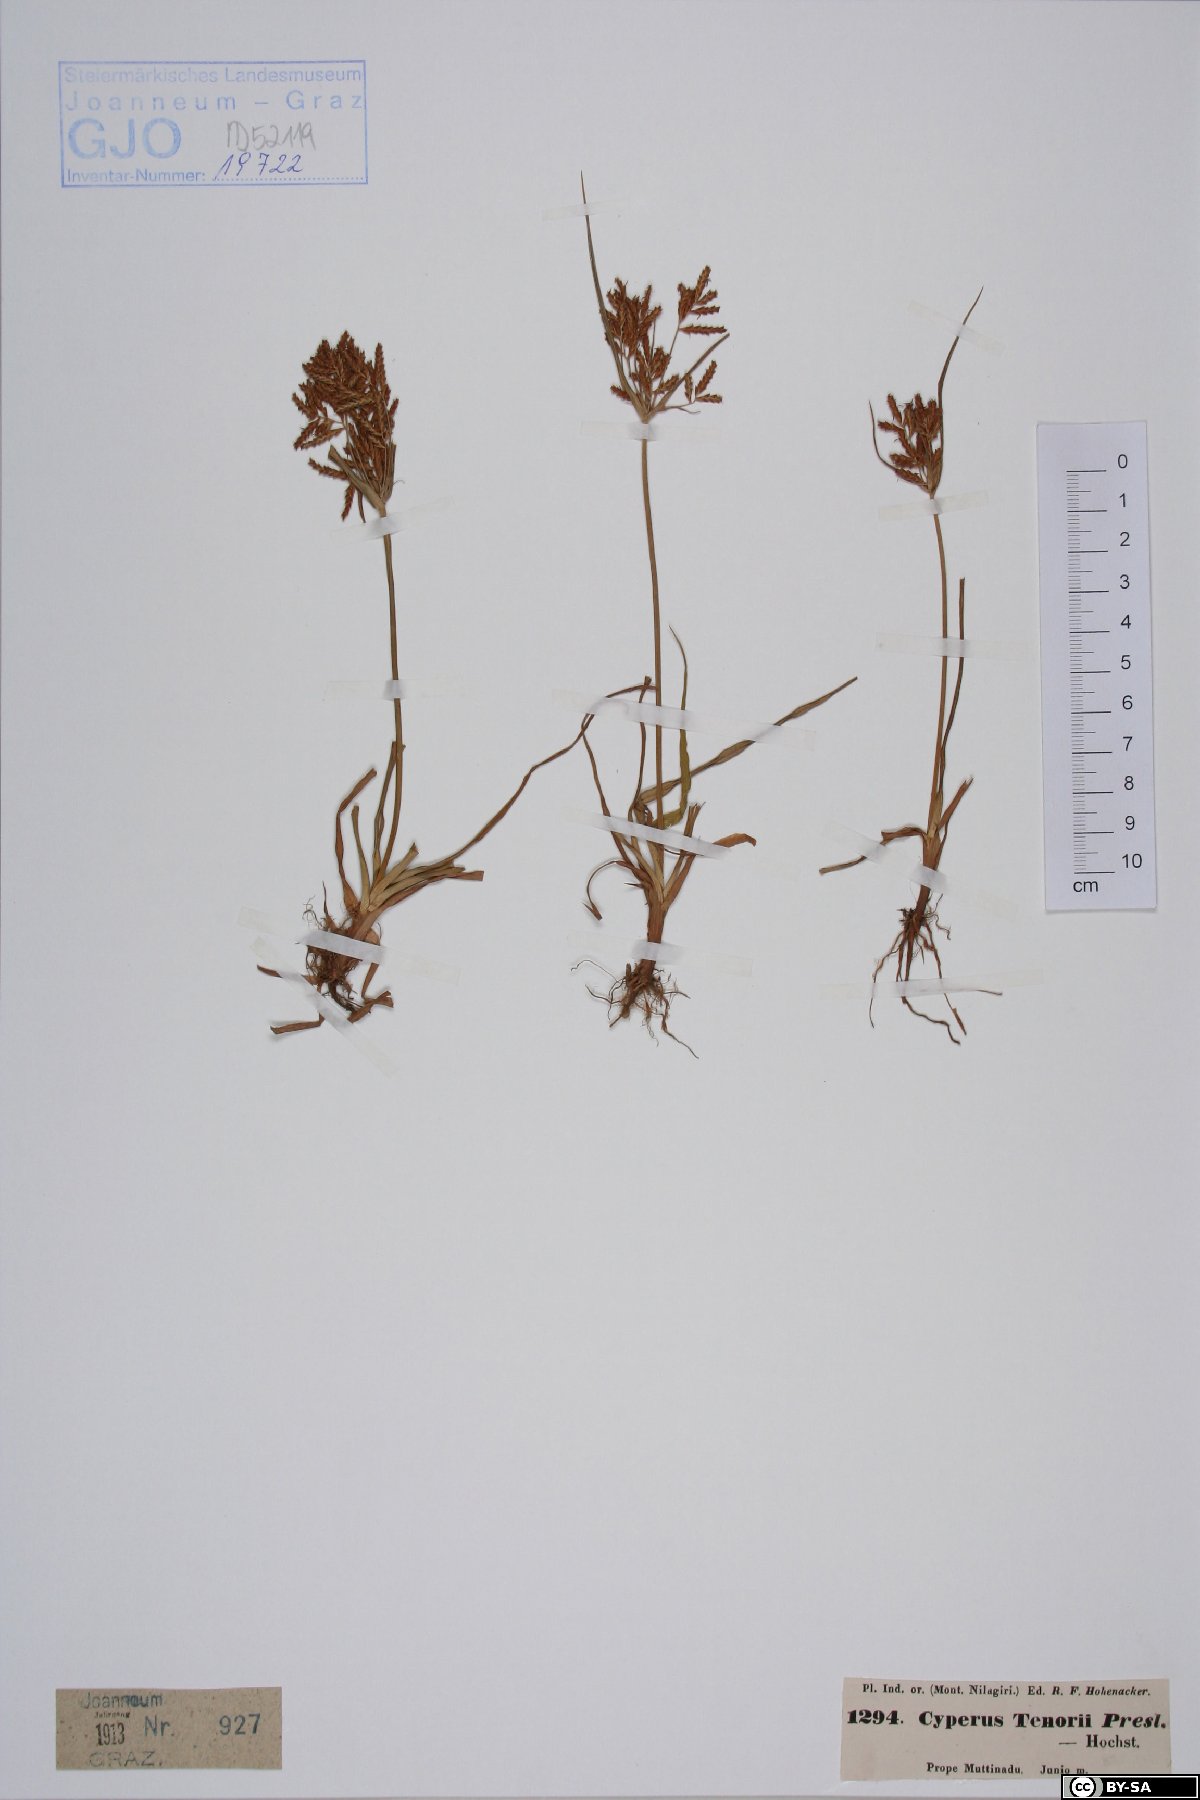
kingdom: Plantae
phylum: Tracheophyta
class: Liliopsida
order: Poales
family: Cyperaceae
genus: Cyperus
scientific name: Cyperus esculentus
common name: Yellow nutsedge
